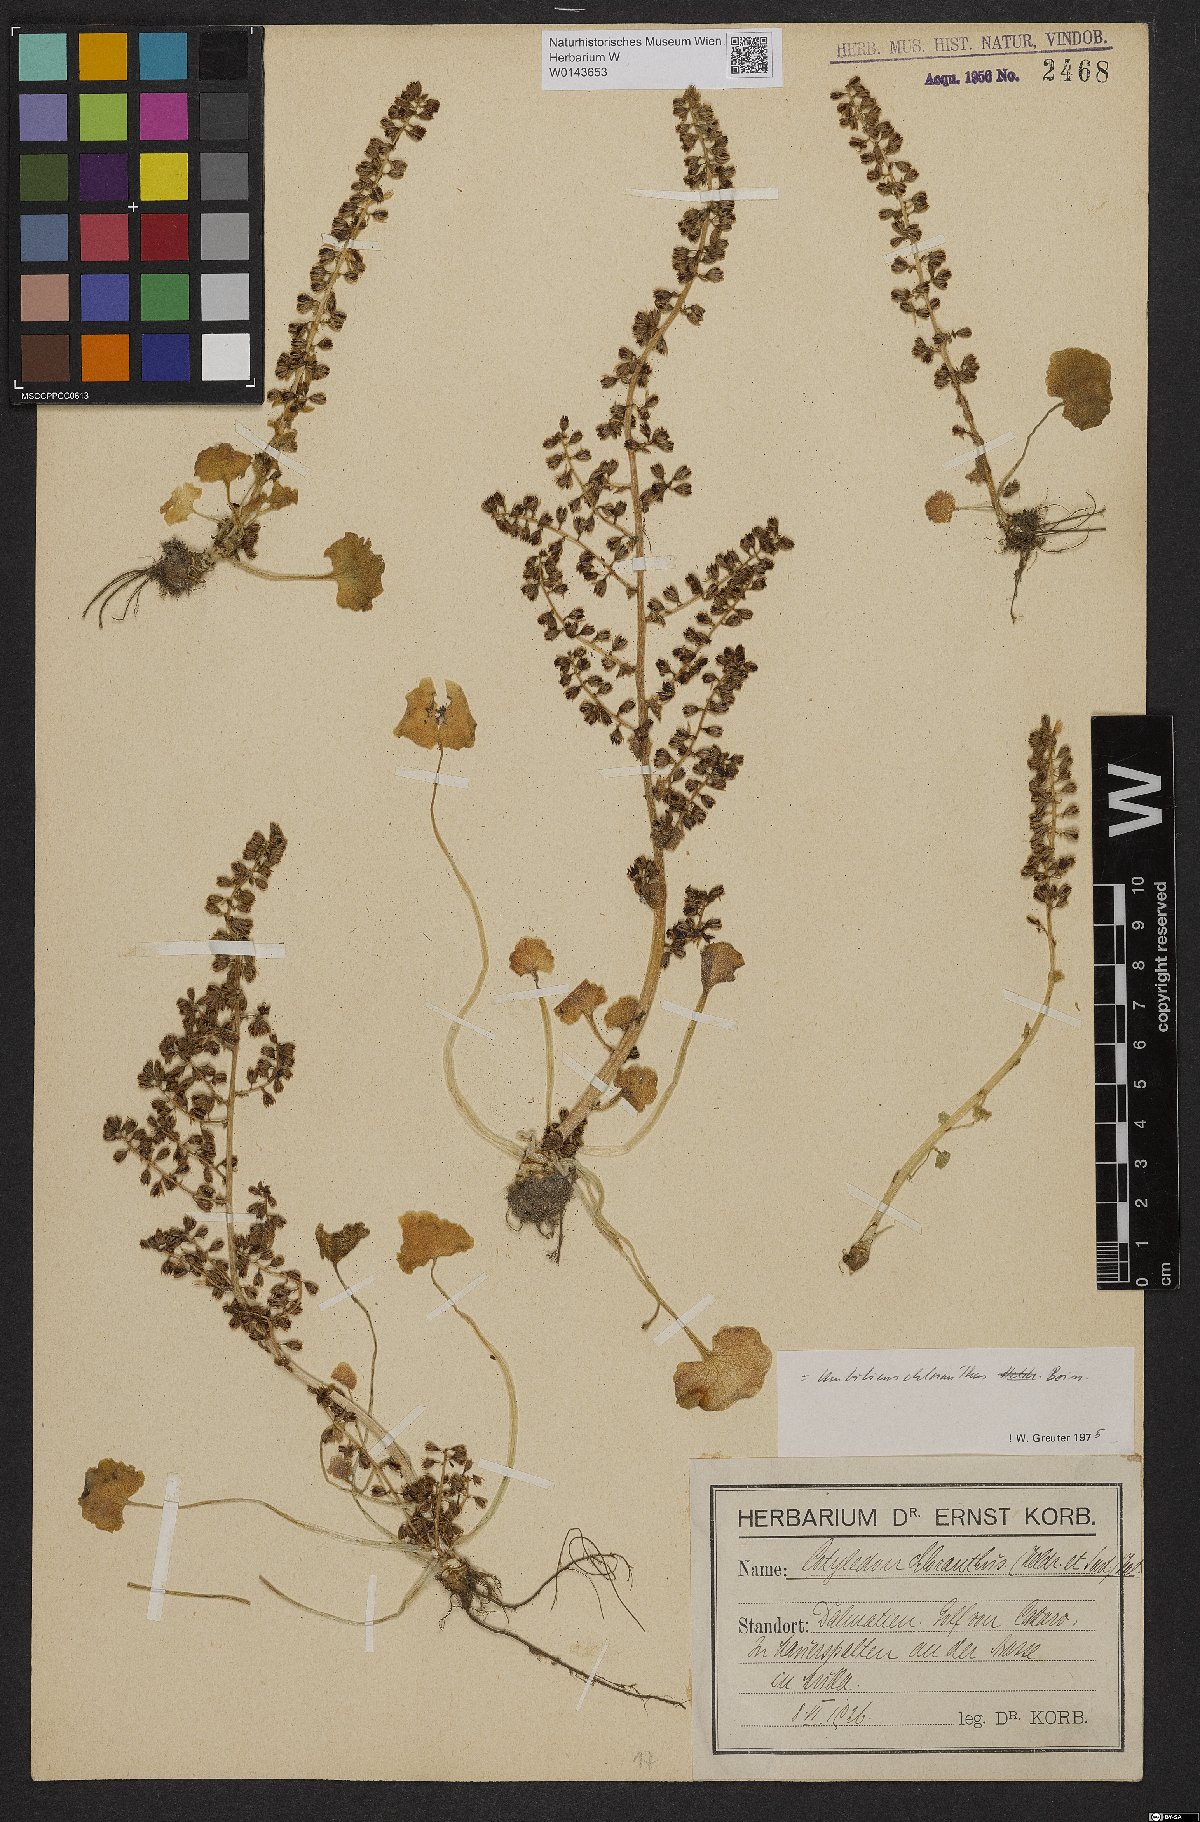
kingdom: Plantae
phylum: Tracheophyta
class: Magnoliopsida
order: Saxifragales
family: Crassulaceae
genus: Umbilicus
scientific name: Umbilicus chloranthus
